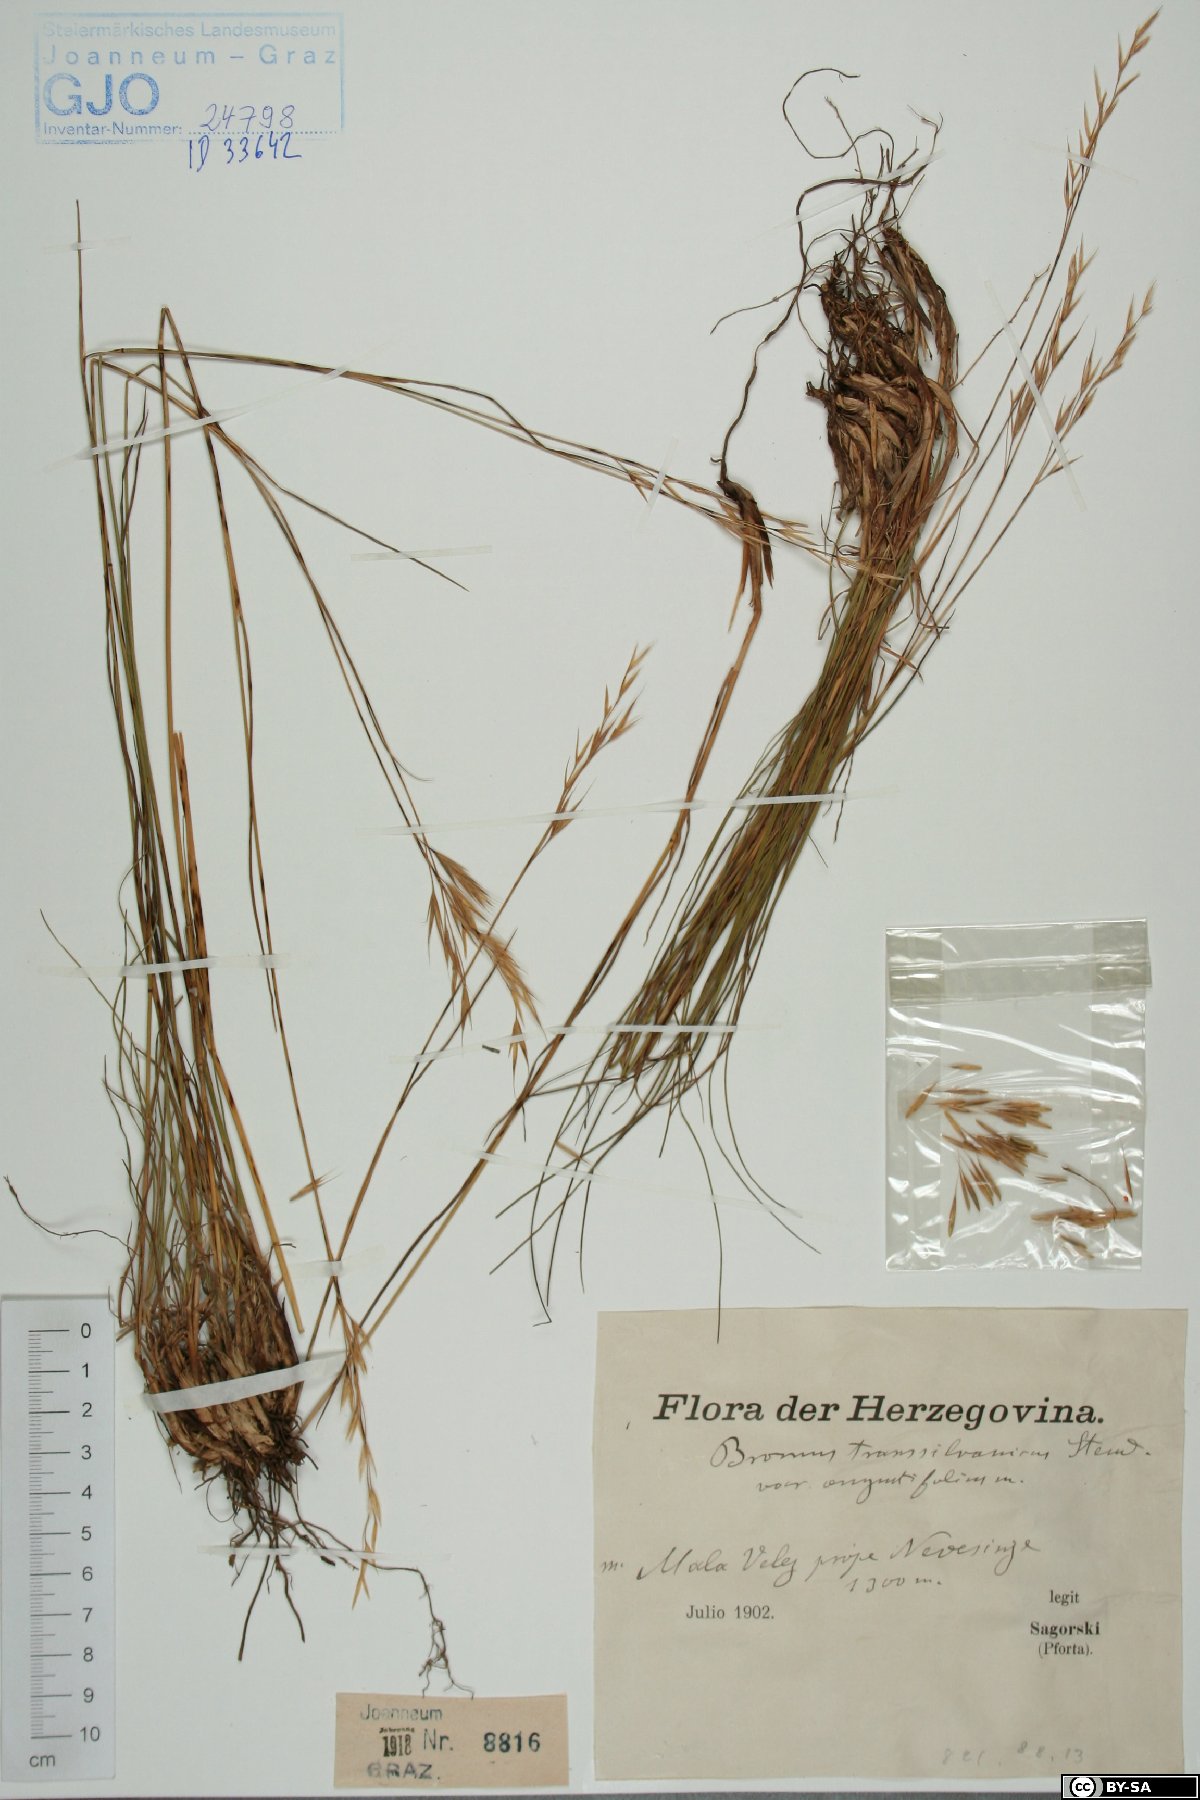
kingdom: Plantae
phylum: Tracheophyta
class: Liliopsida
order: Poales
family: Poaceae
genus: Bromus
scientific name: Bromus erectus
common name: Erect brome
